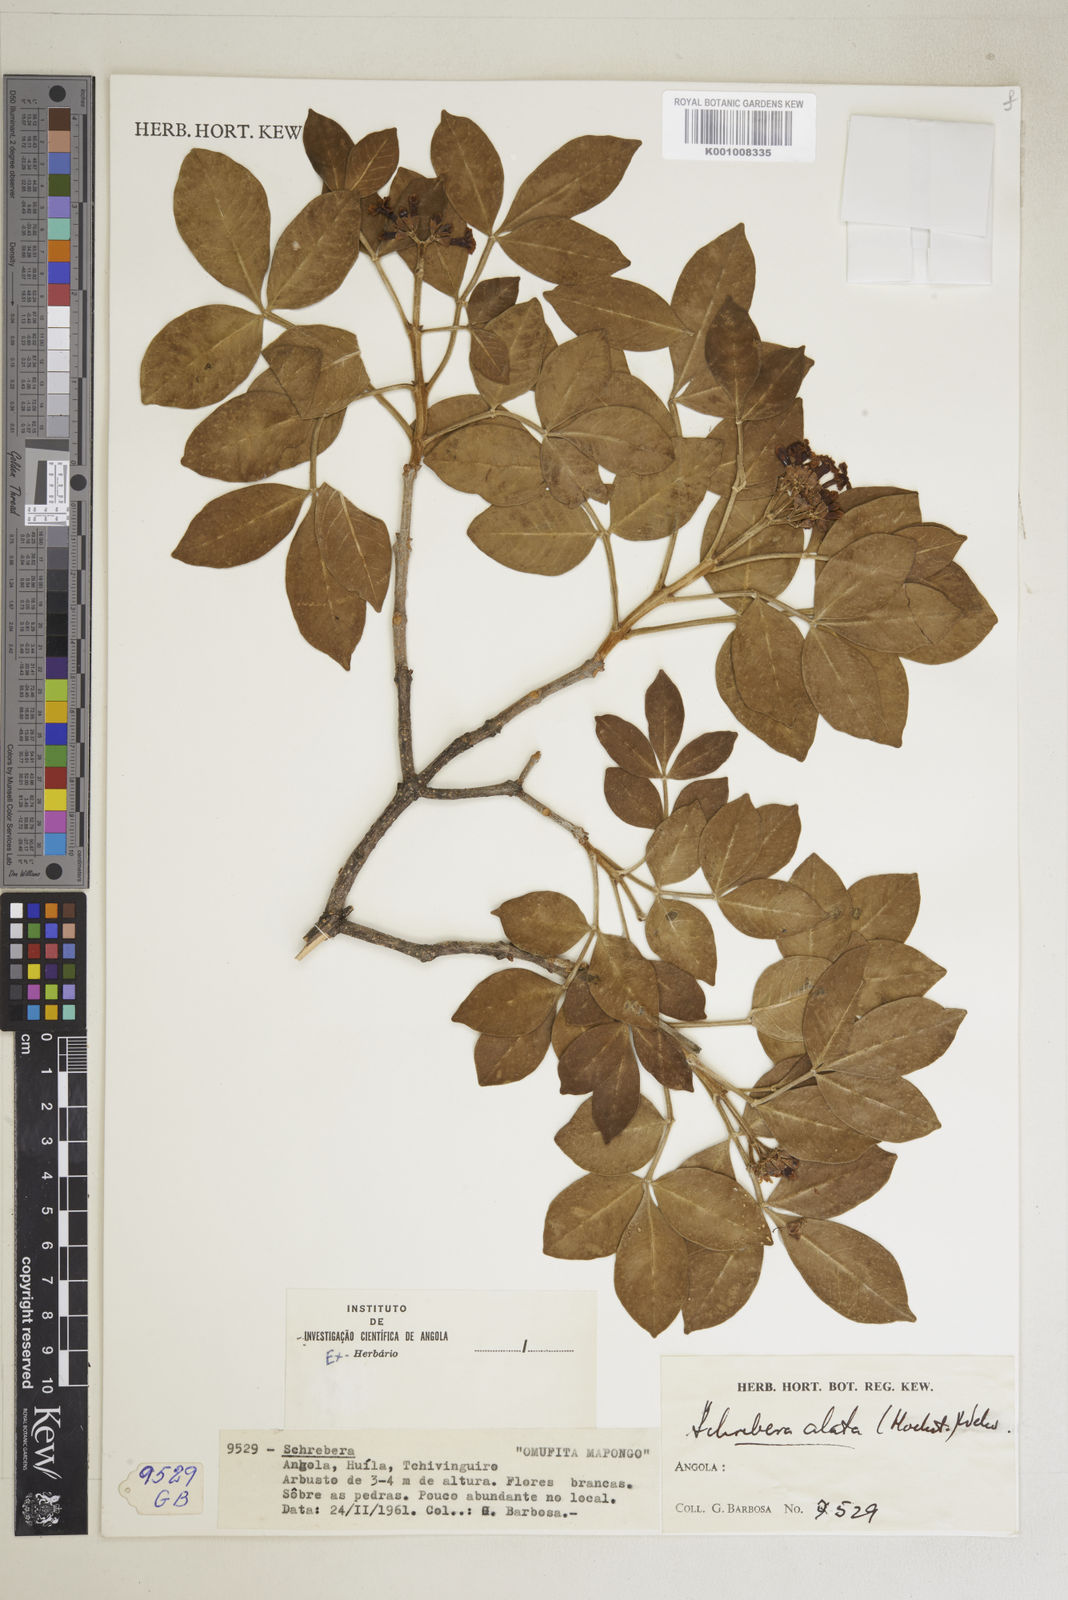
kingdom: Plantae
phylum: Tracheophyta
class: Magnoliopsida
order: Lamiales
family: Oleaceae
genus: Schrebera
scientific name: Schrebera alata
